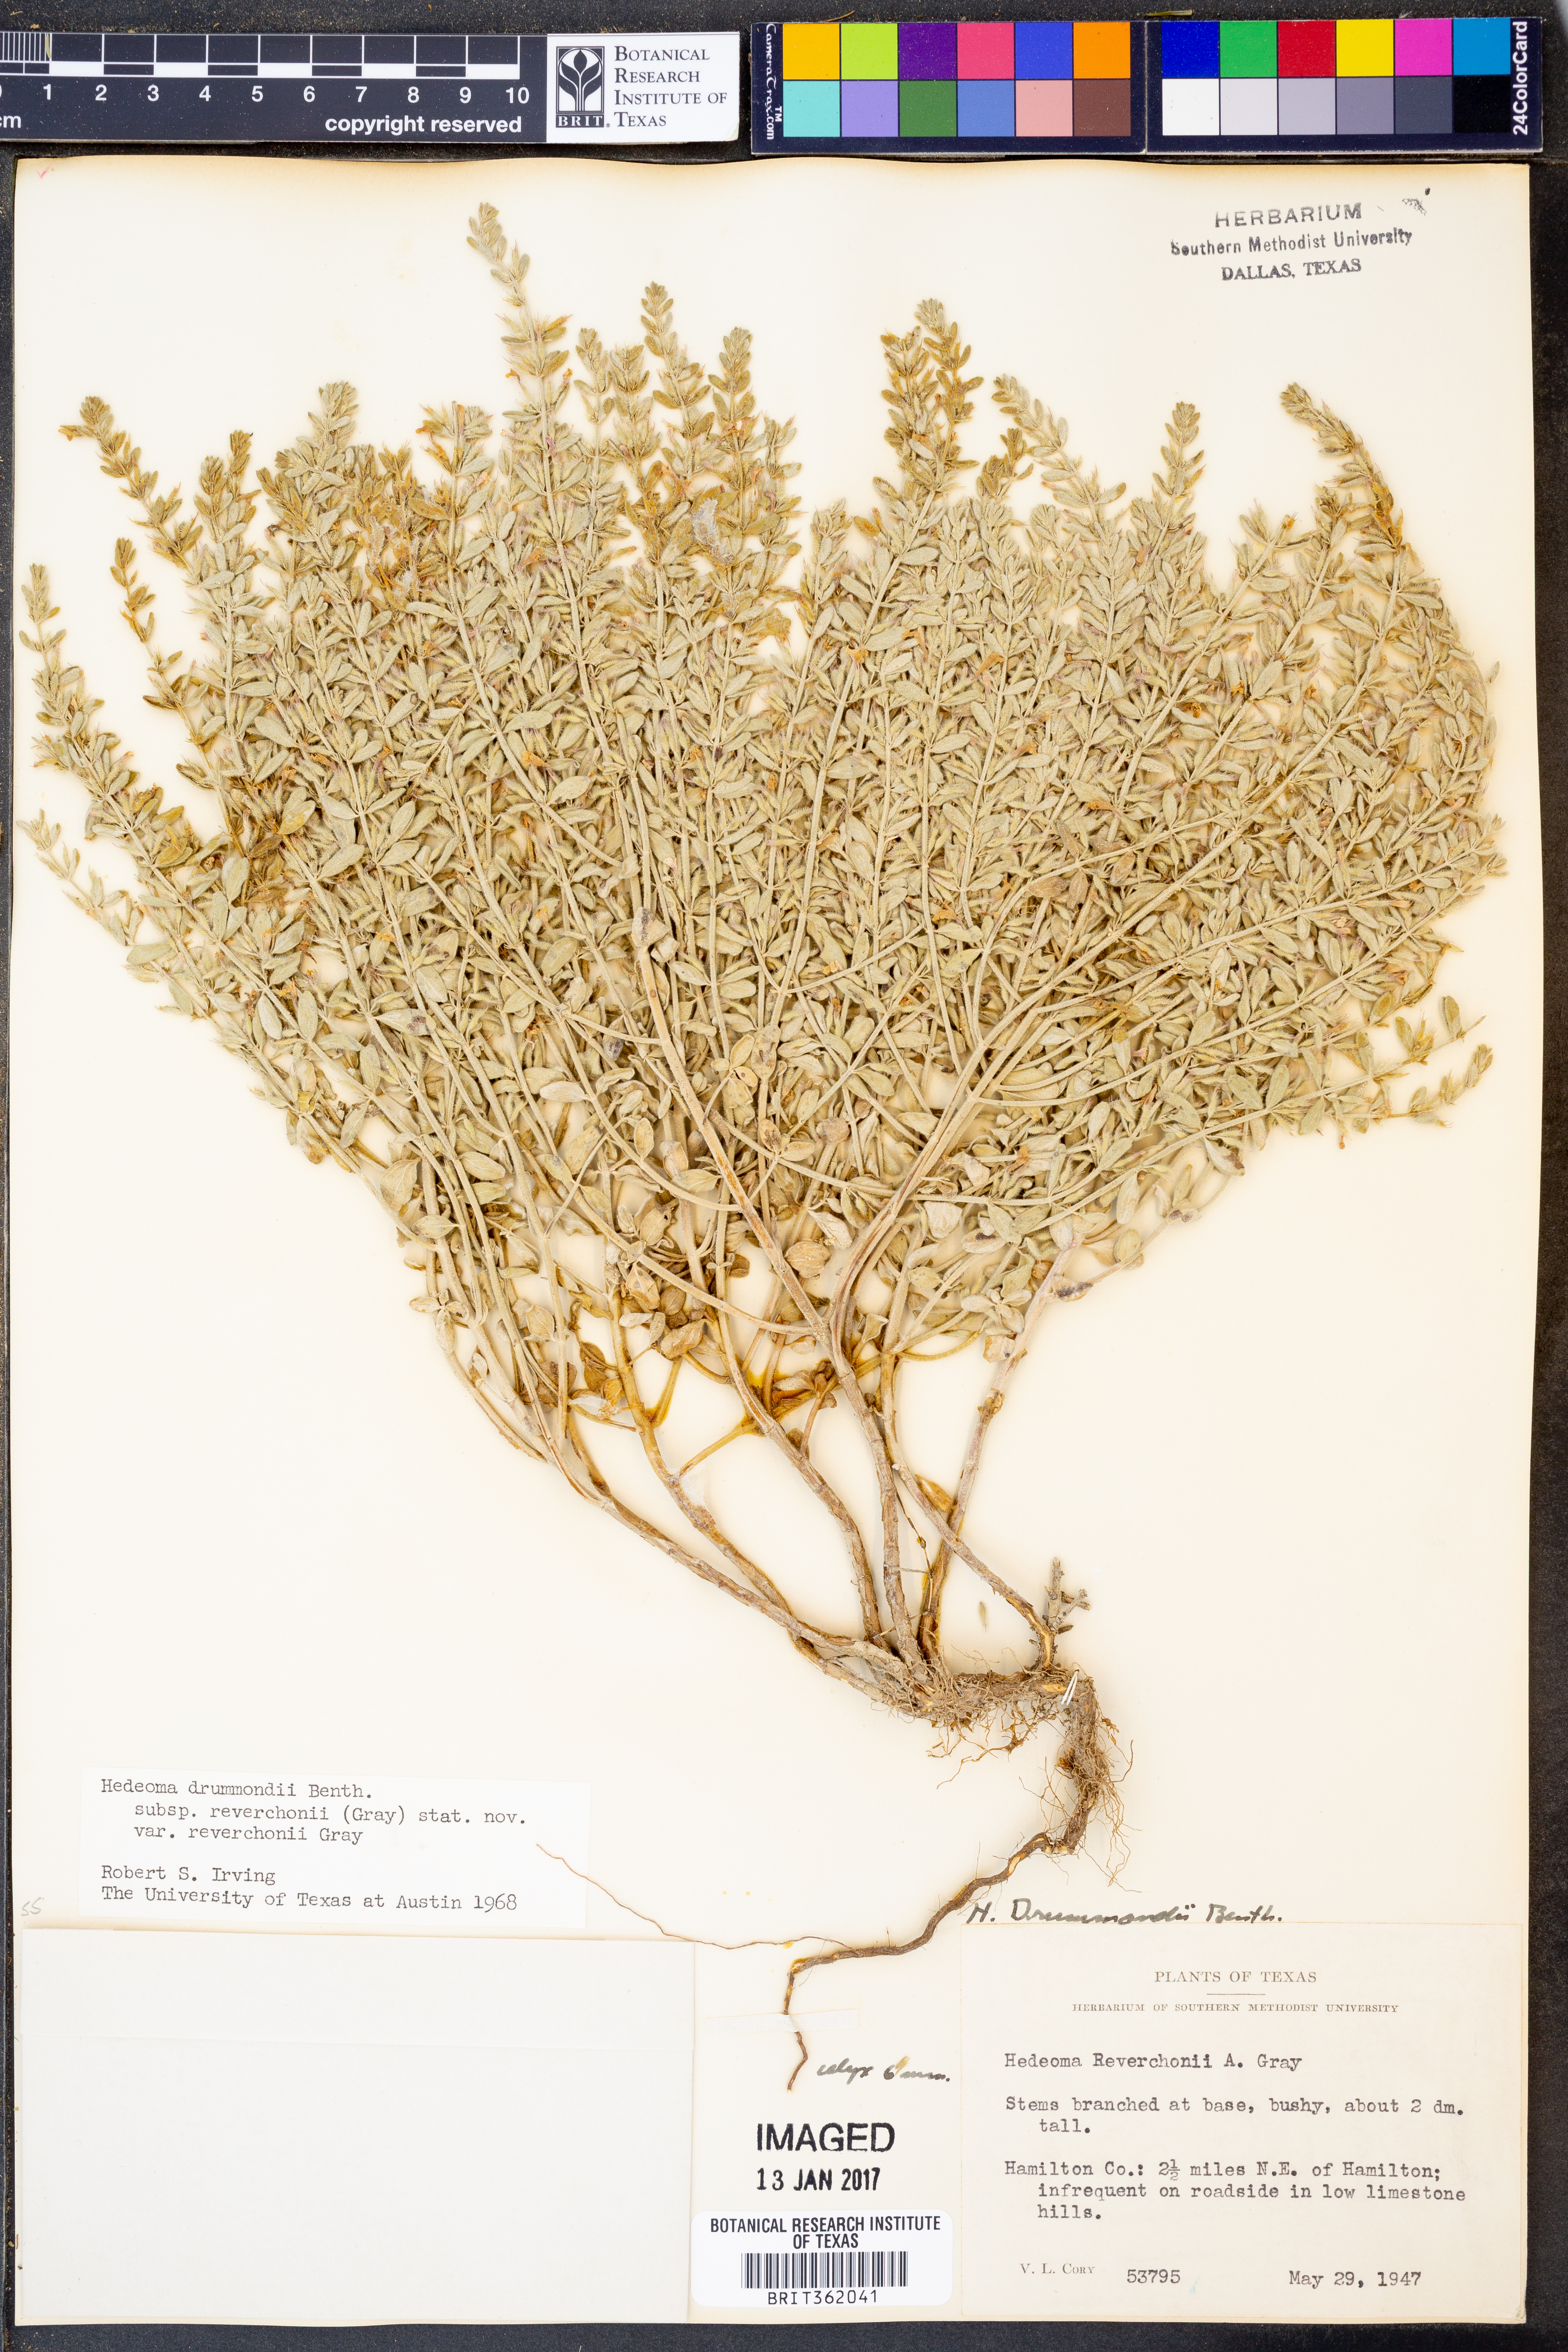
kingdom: Plantae
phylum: Tracheophyta
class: Magnoliopsida
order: Lamiales
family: Lamiaceae
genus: Hedeoma
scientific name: Hedeoma reverchonii
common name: Reverchon's false penny-royal
